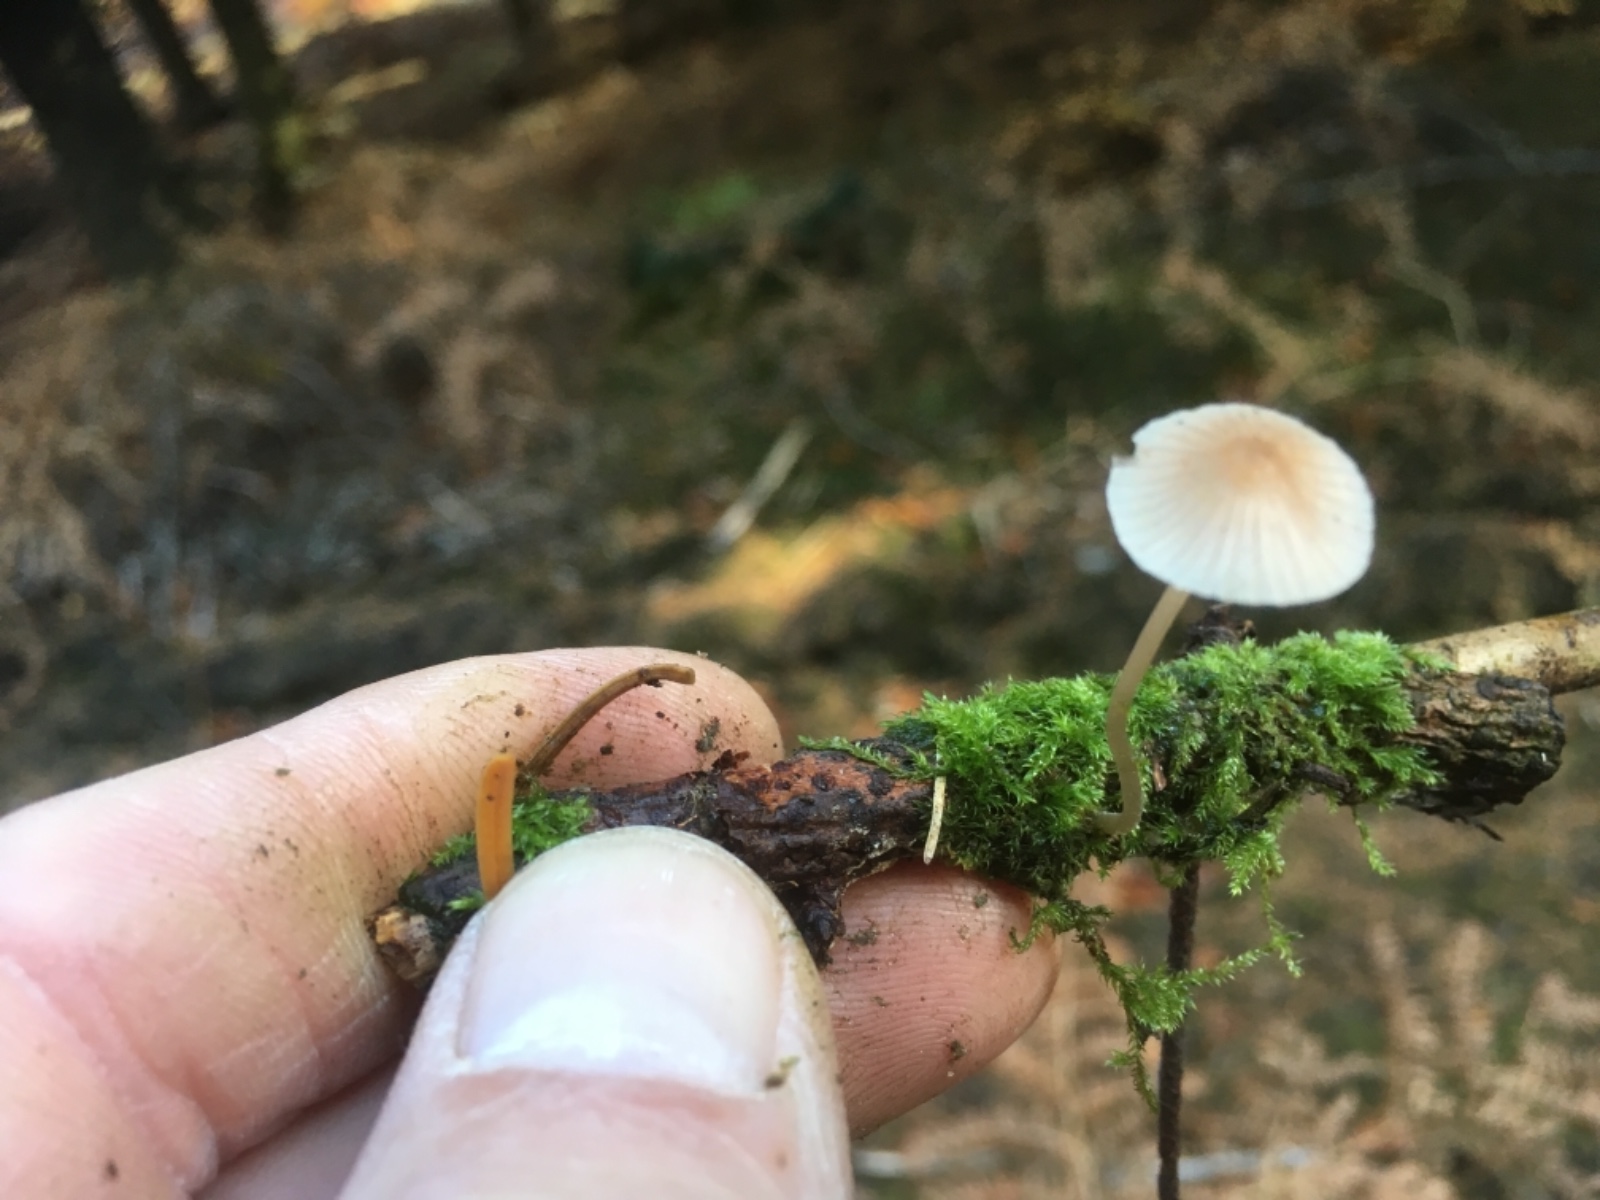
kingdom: Fungi
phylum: Basidiomycota
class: Agaricomycetes
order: Agaricales
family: Mycenaceae
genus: Mycena
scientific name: Mycena metata
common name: rødlig huesvamp
